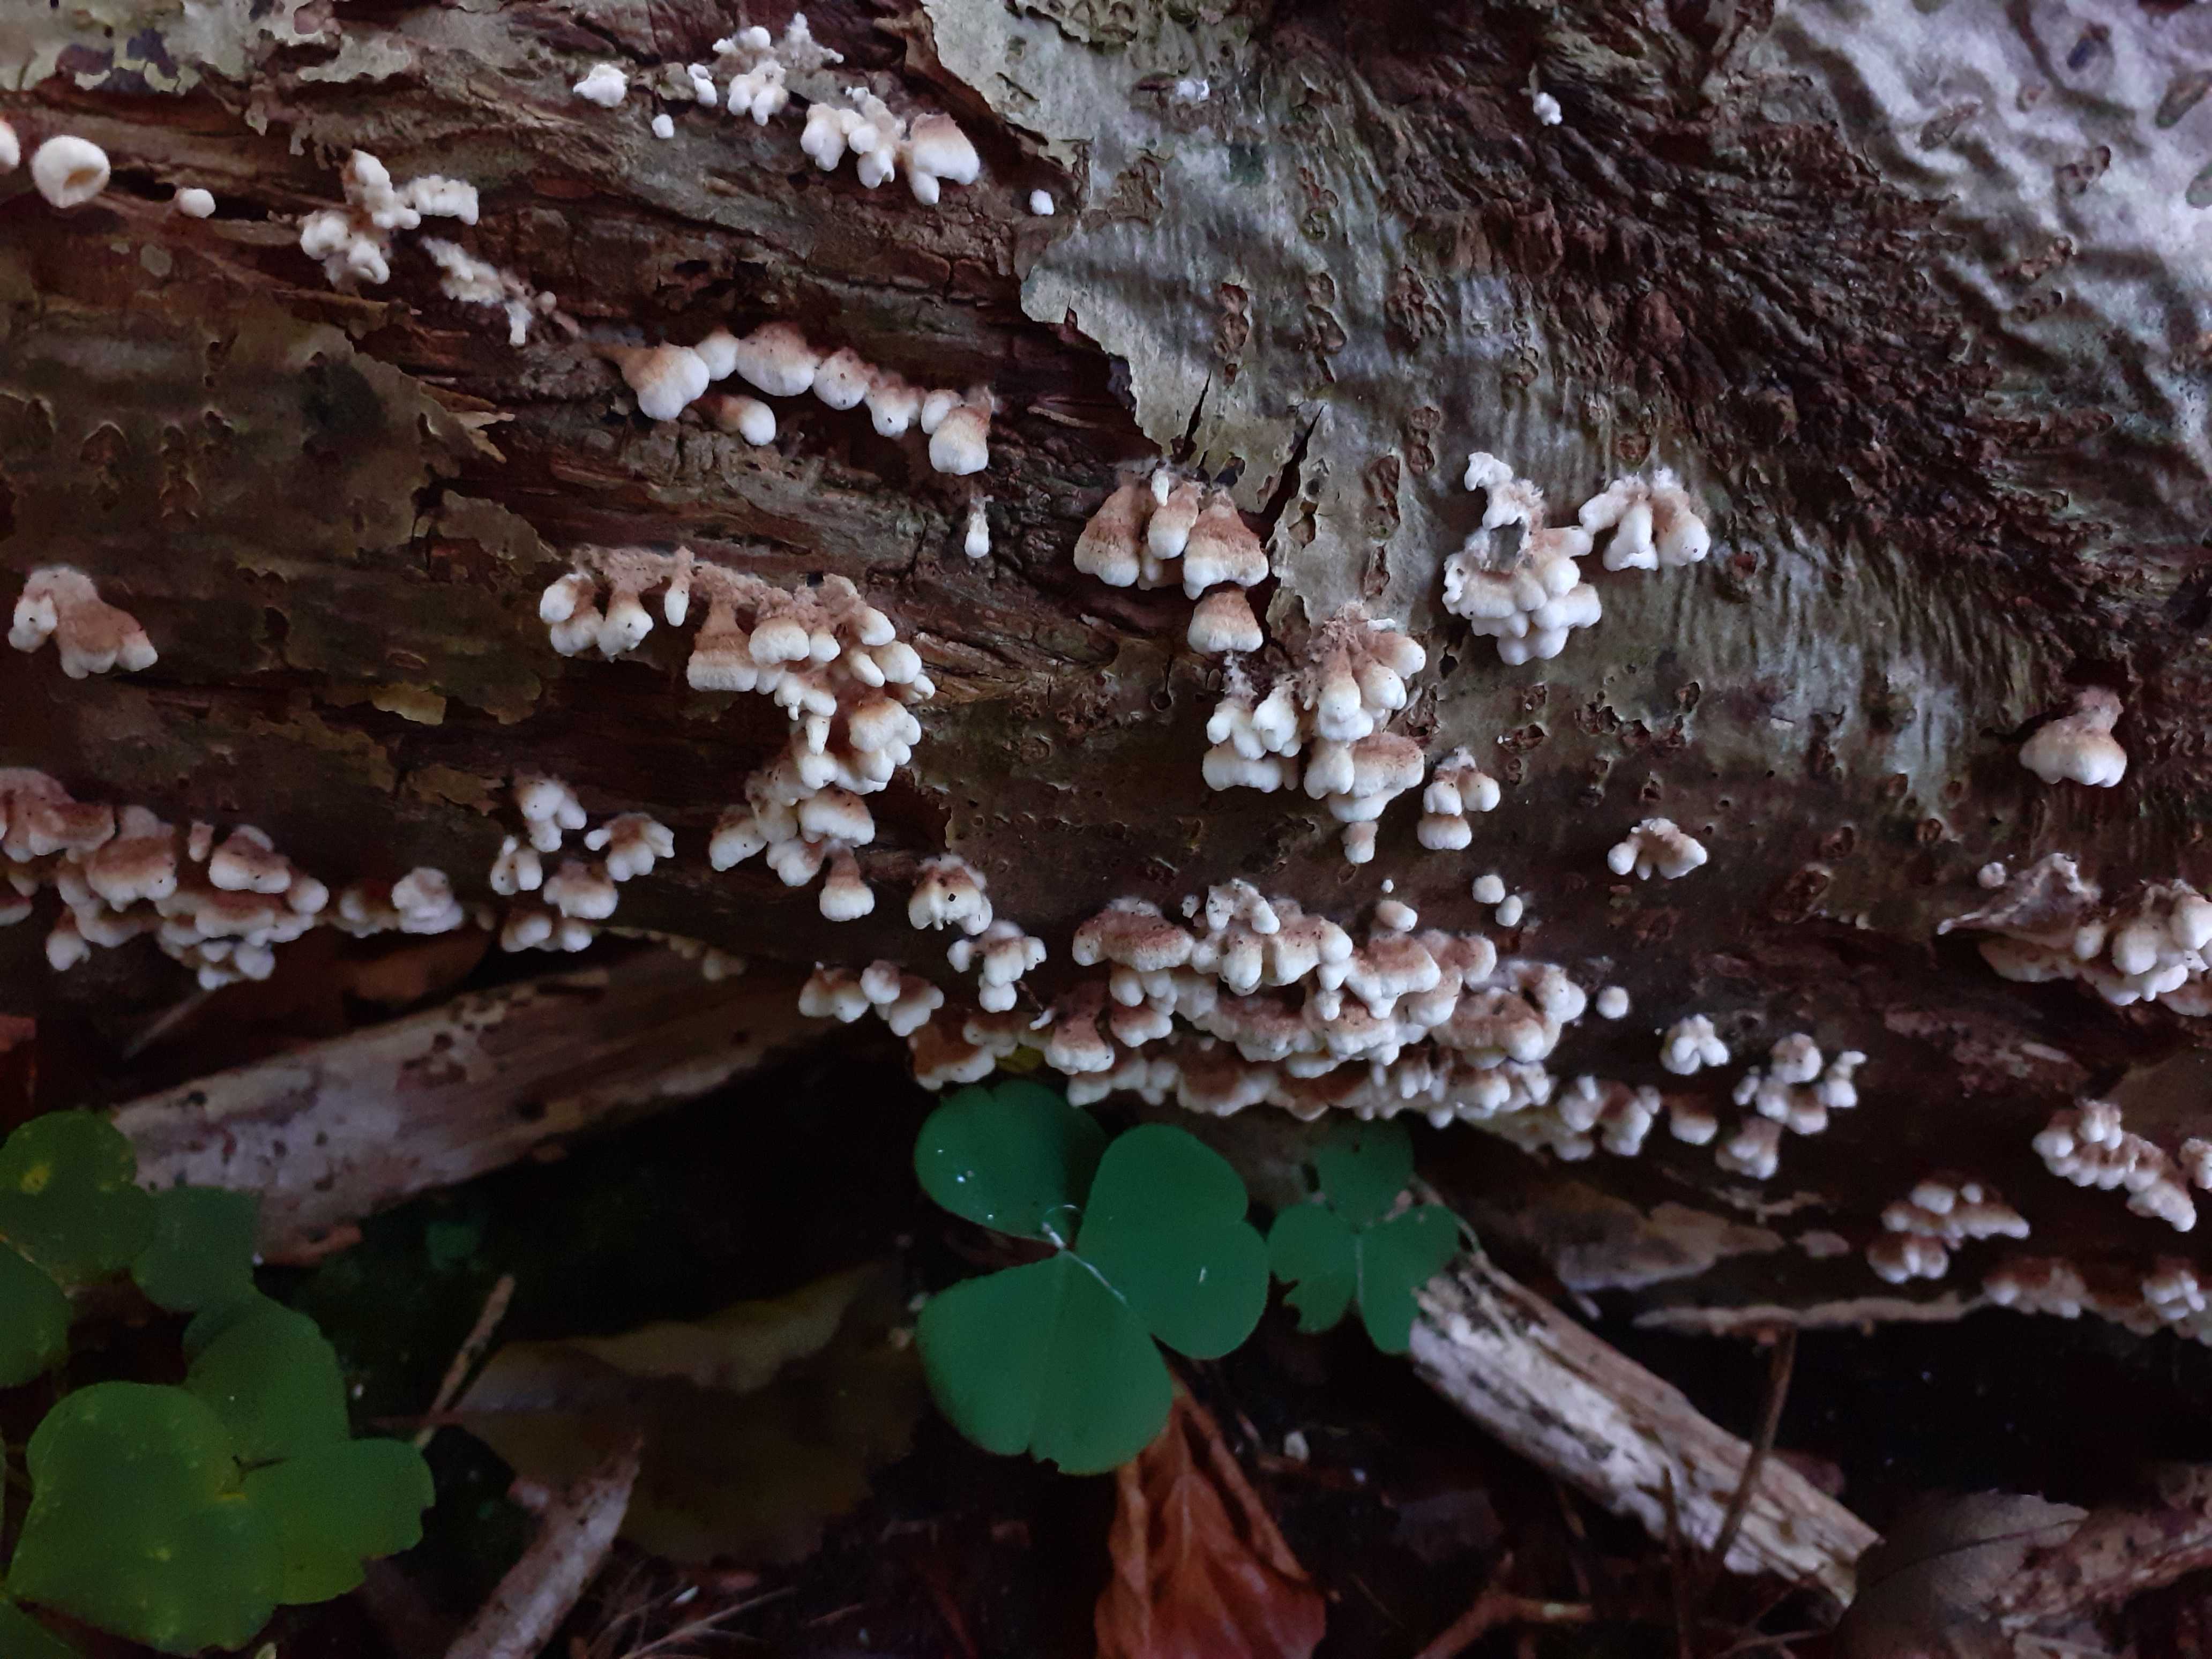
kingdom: Fungi
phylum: Basidiomycota
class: Agaricomycetes
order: Amylocorticiales
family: Amylocorticiaceae
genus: Plicaturopsis
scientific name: Plicaturopsis crispa
